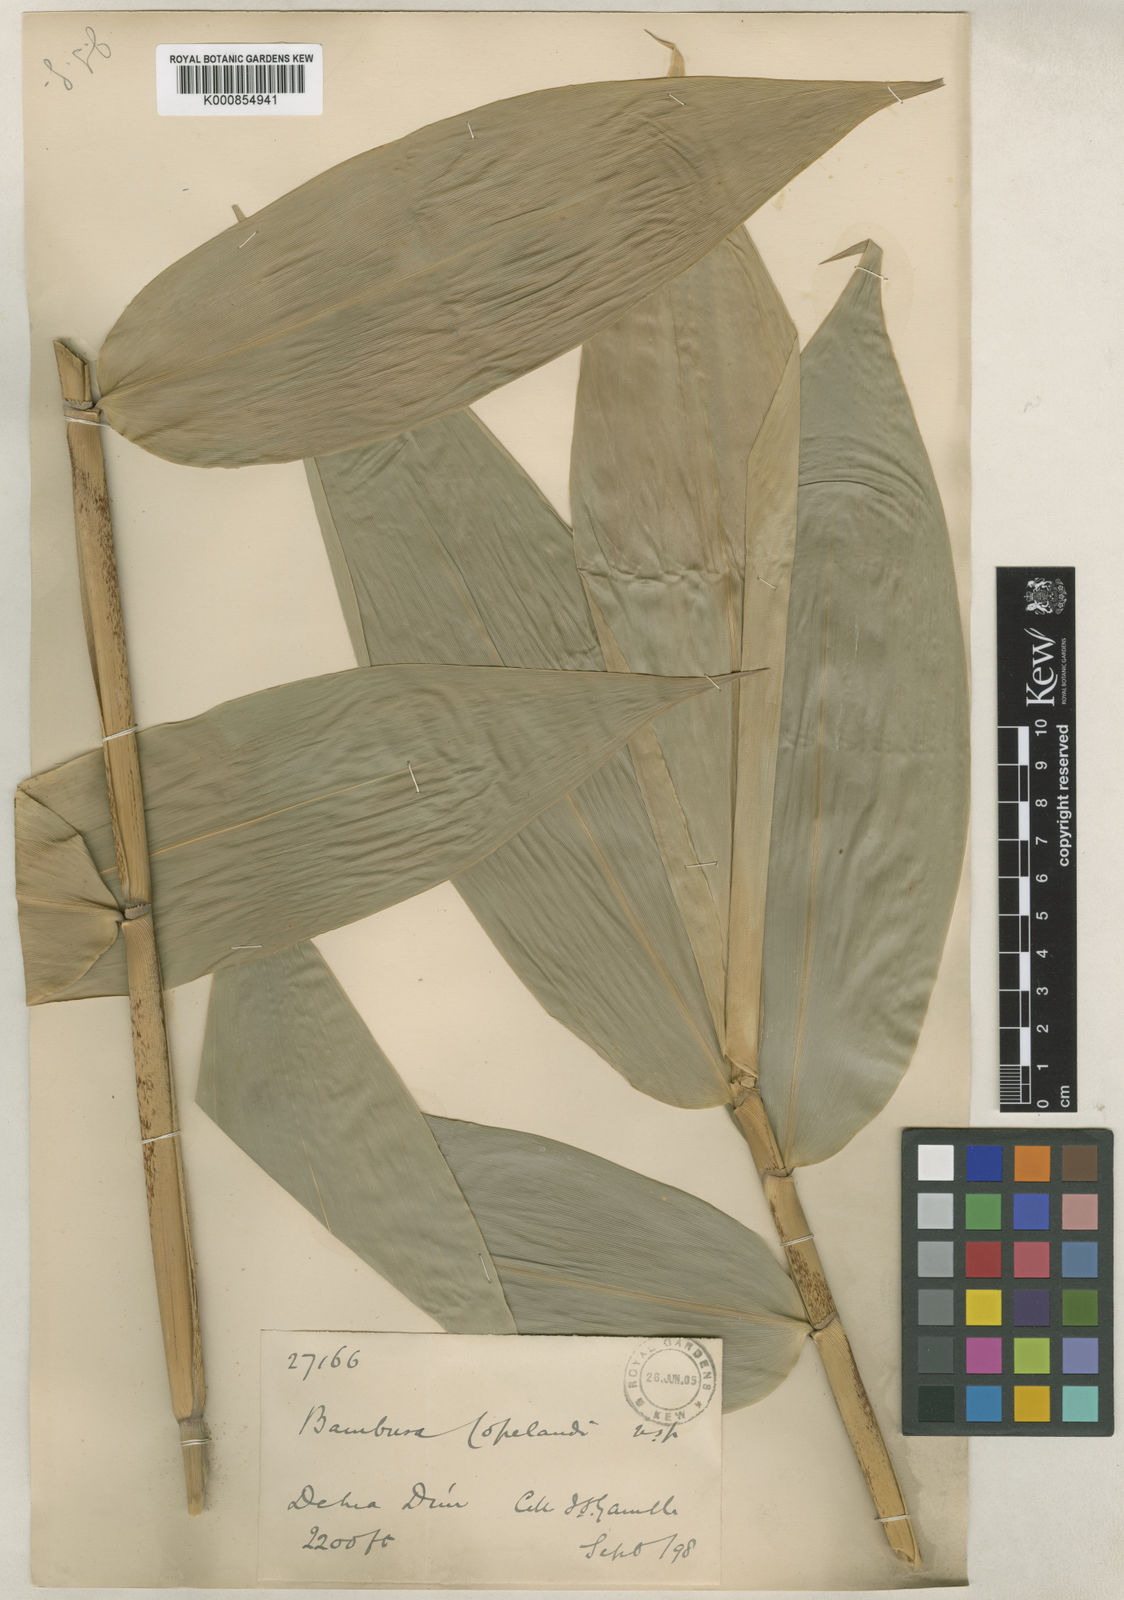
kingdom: Plantae
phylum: Tracheophyta
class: Liliopsida
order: Poales
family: Poaceae
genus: Bambusa
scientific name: Bambusa copelandii
